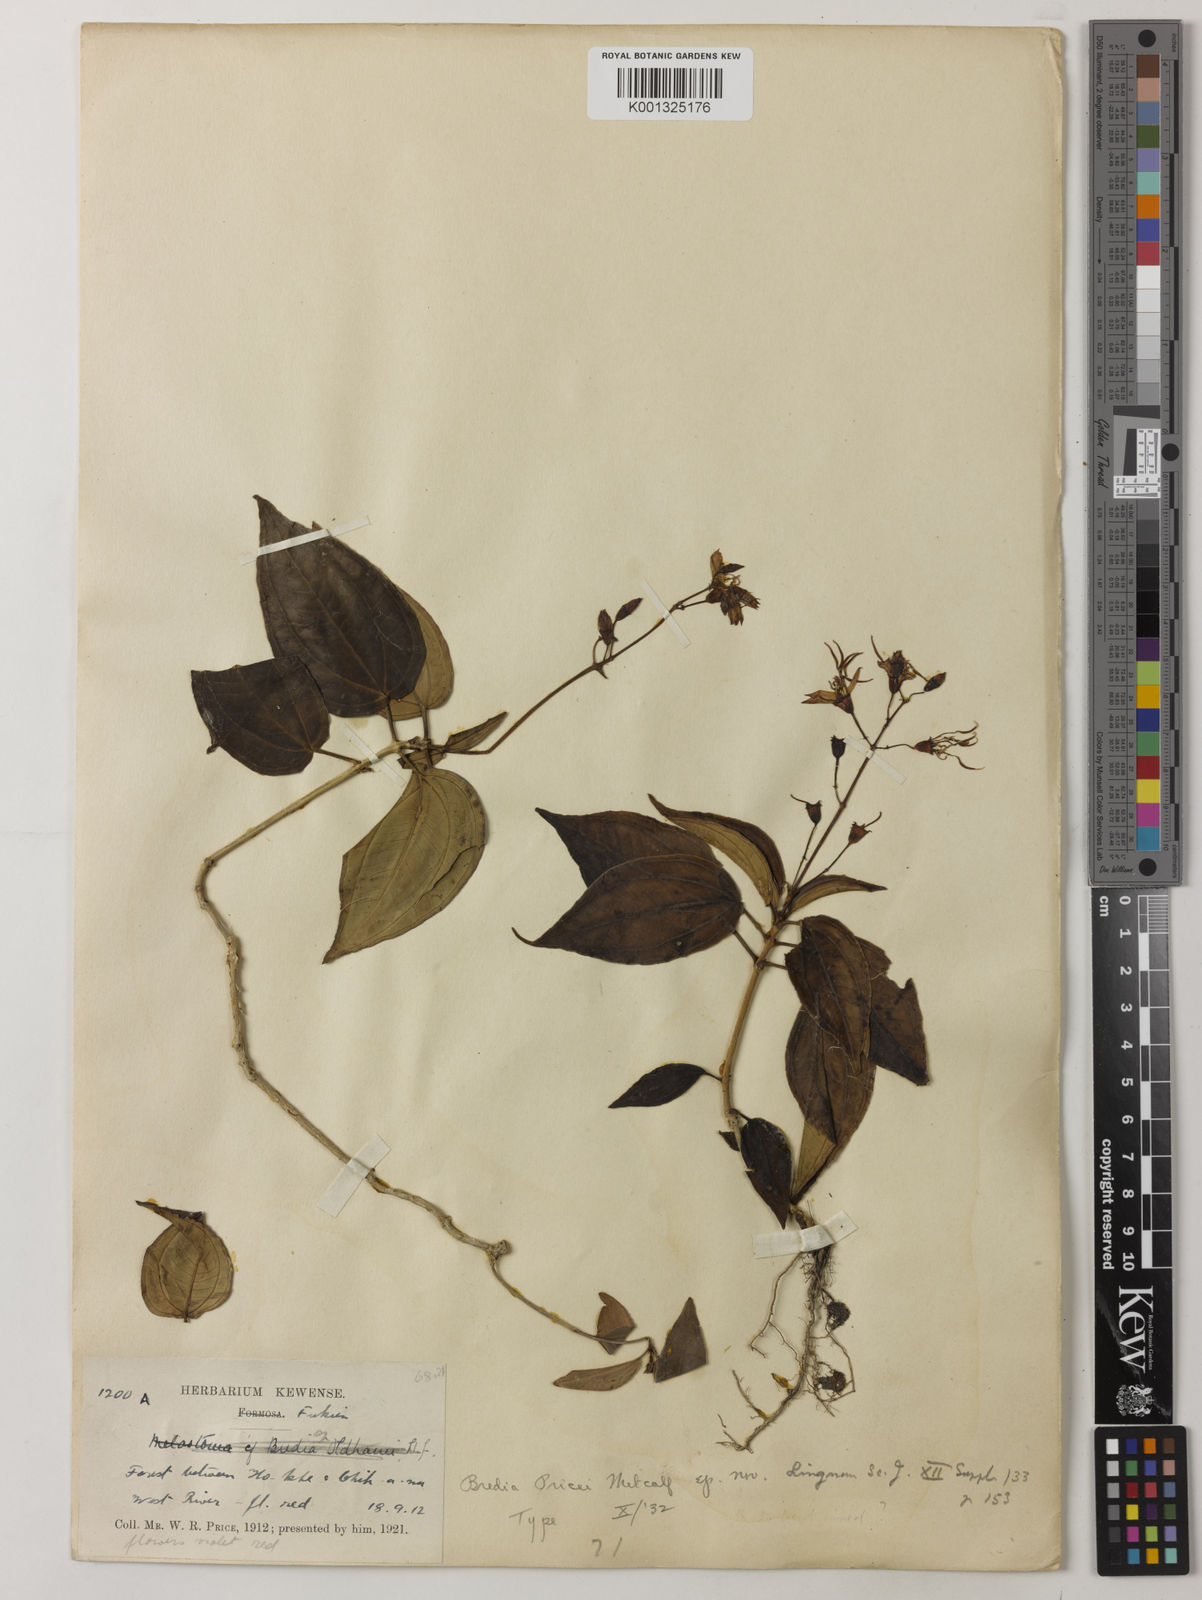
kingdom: Plantae
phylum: Tracheophyta
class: Magnoliopsida
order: Myrtales
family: Melastomataceae
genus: Tashiroea
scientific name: Tashiroea amoena
